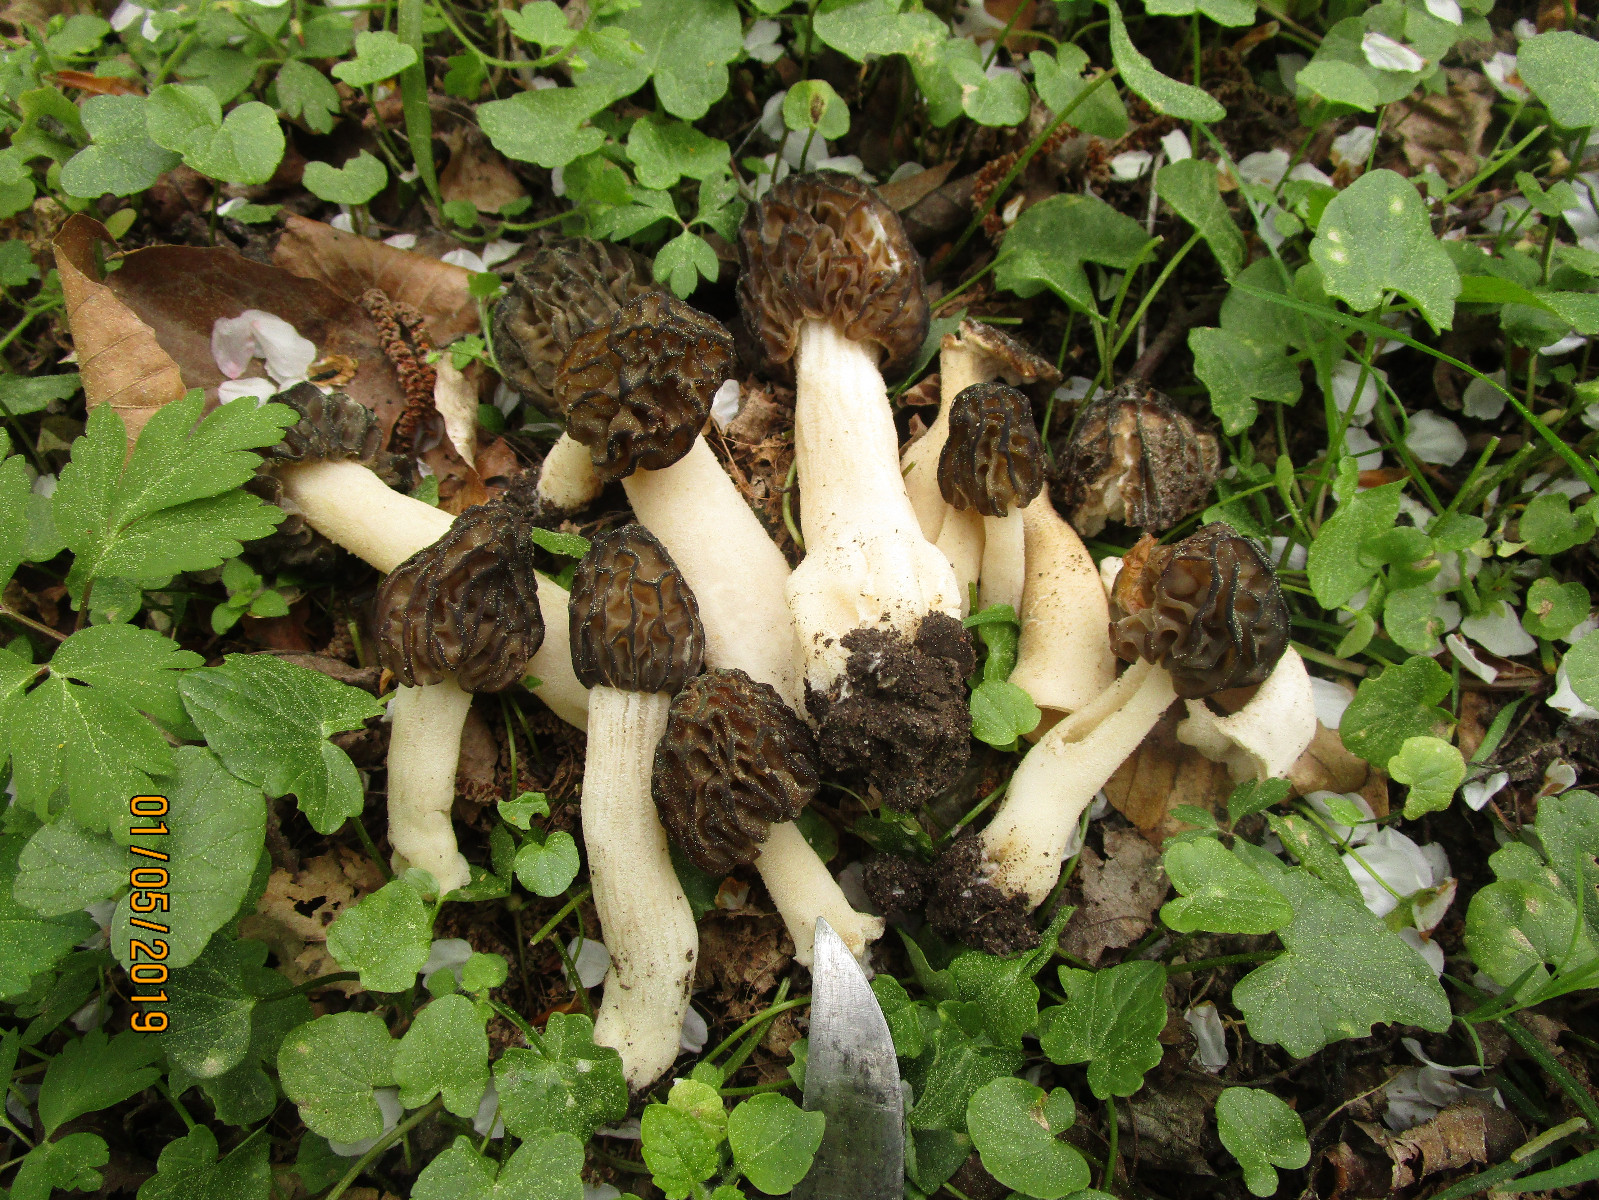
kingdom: Fungi
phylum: Ascomycota
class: Pezizomycetes
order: Pezizales
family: Morchellaceae
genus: Morchella
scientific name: Morchella semilibera
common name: hætte-morkel
